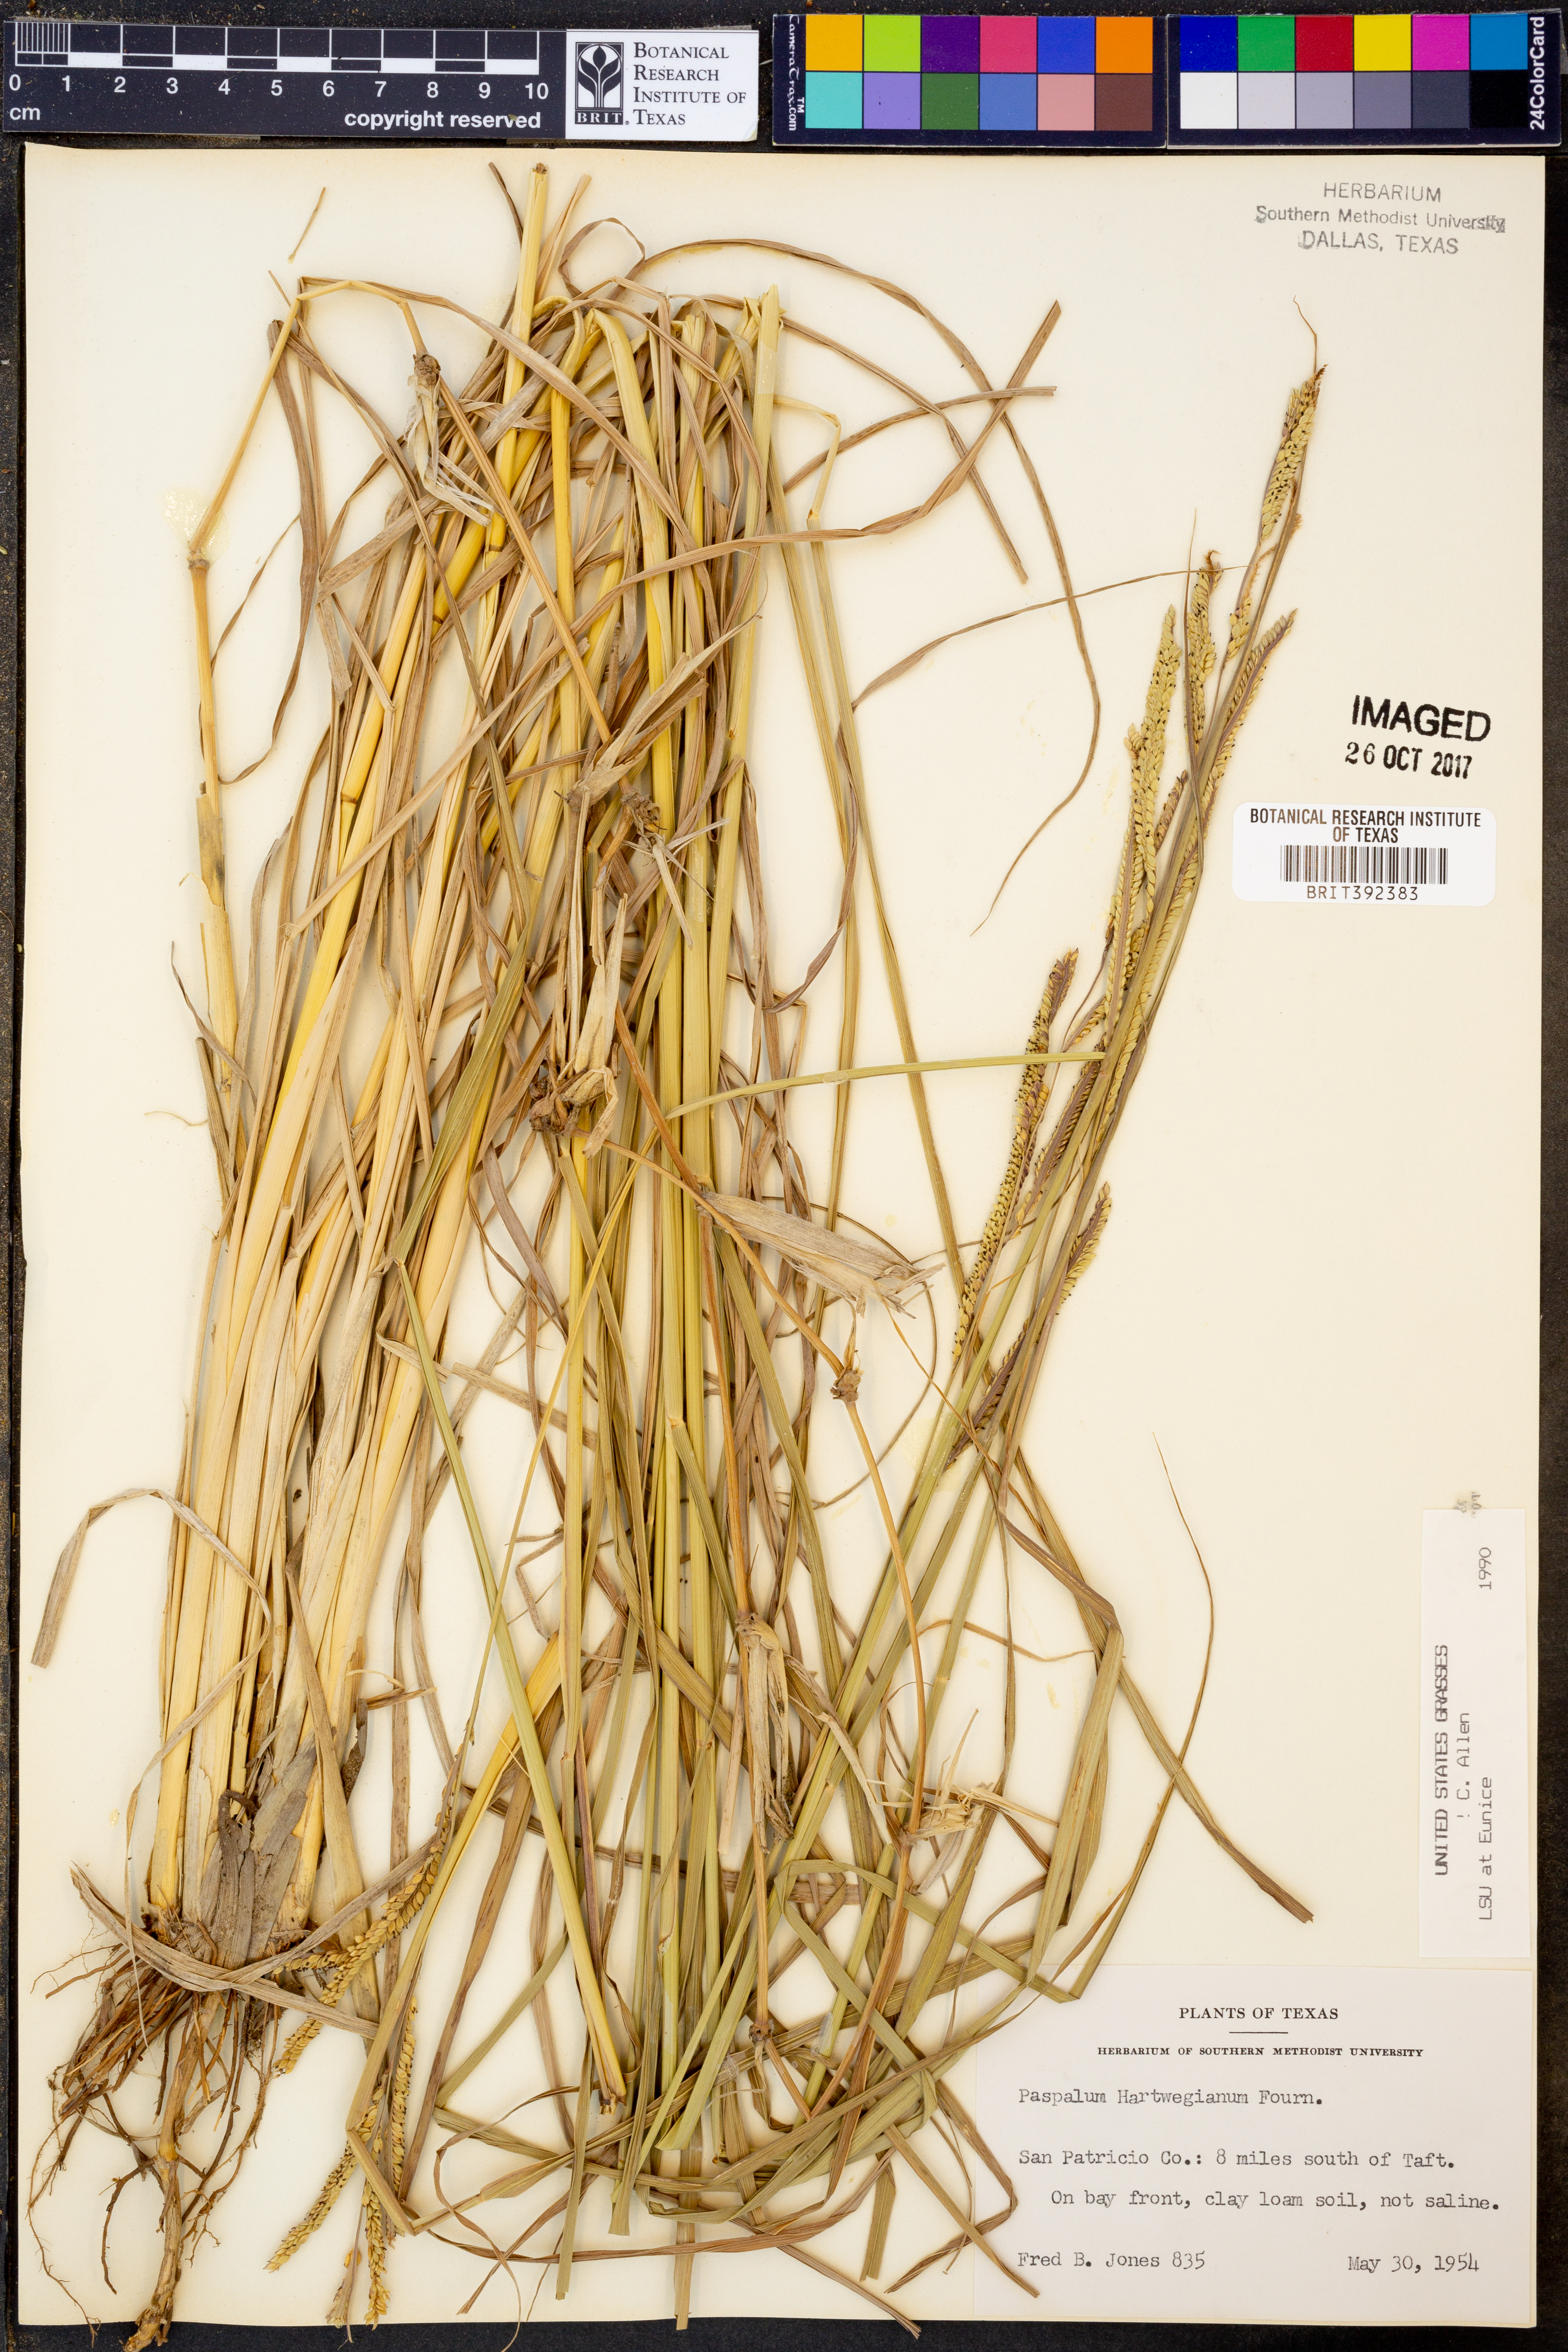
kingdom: Plantae
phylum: Tracheophyta
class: Liliopsida
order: Poales
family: Poaceae
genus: Paspalum
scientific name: Paspalum hartwegianum
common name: Hartweg's paspalum
